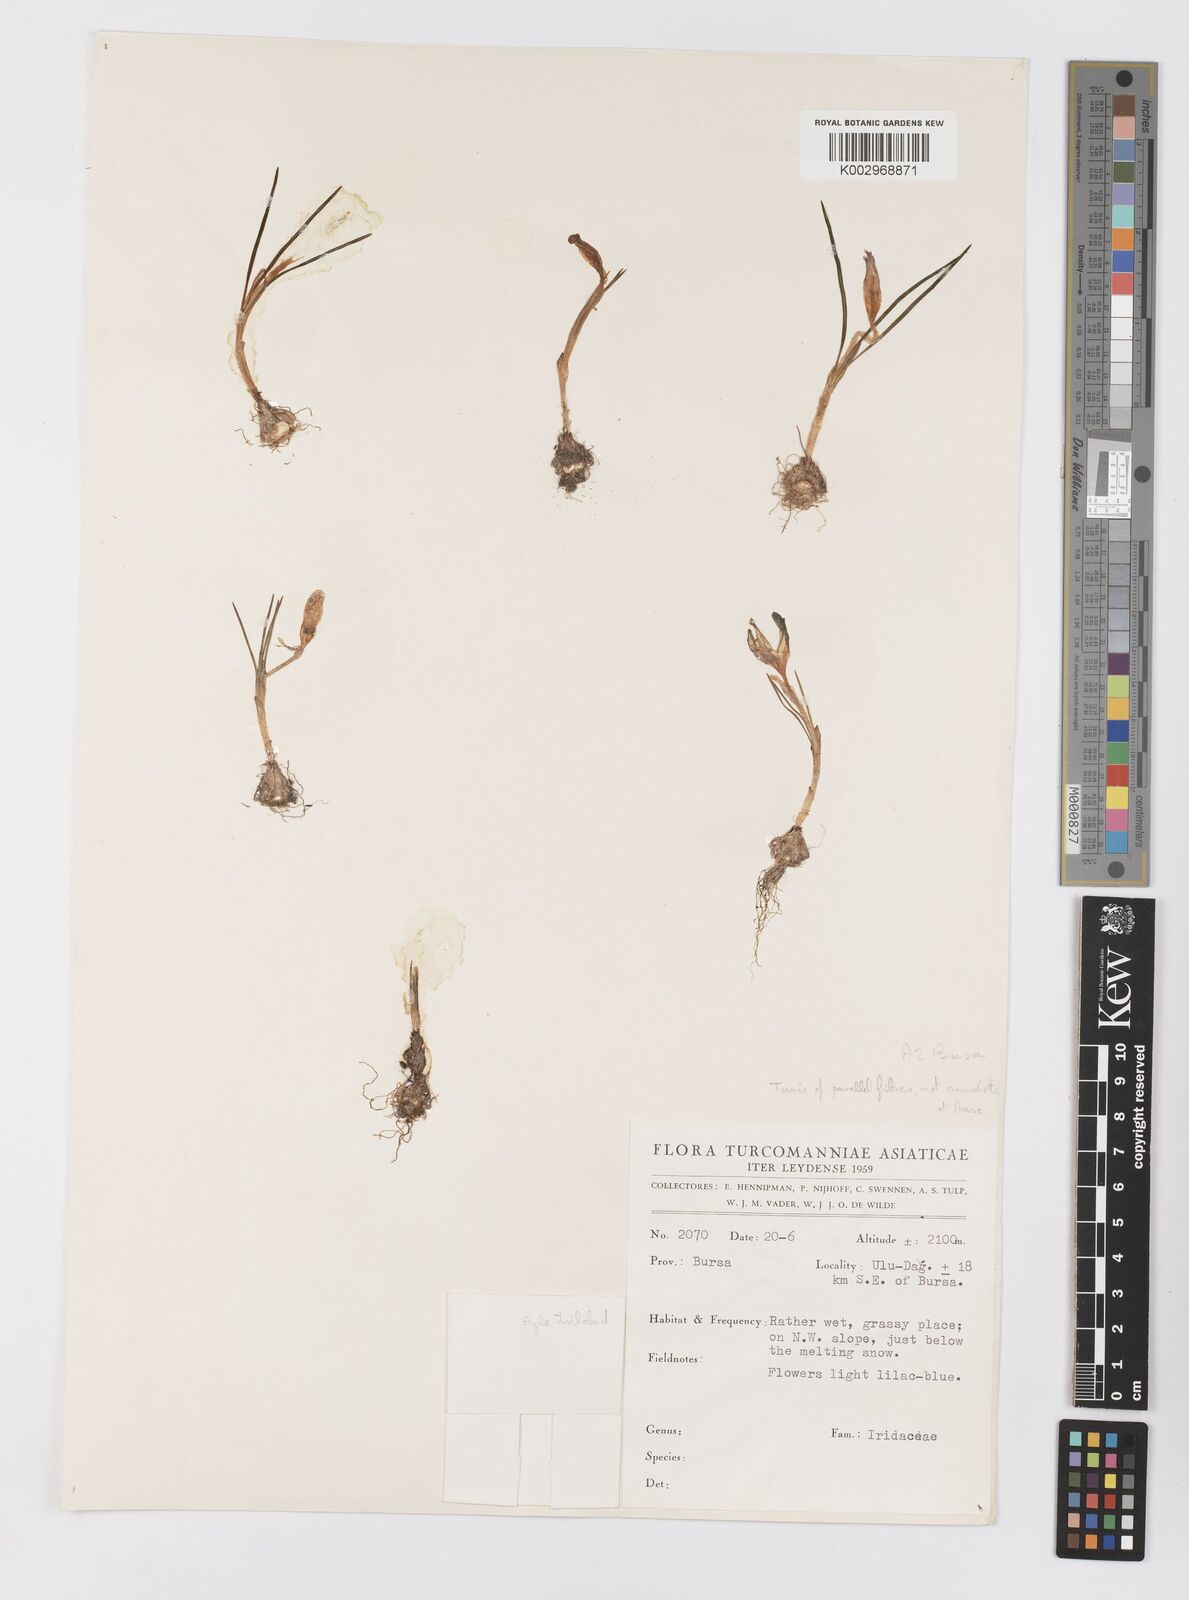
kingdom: Plantae
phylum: Tracheophyta
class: Liliopsida
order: Asparagales
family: Iridaceae
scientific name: Iridaceae
